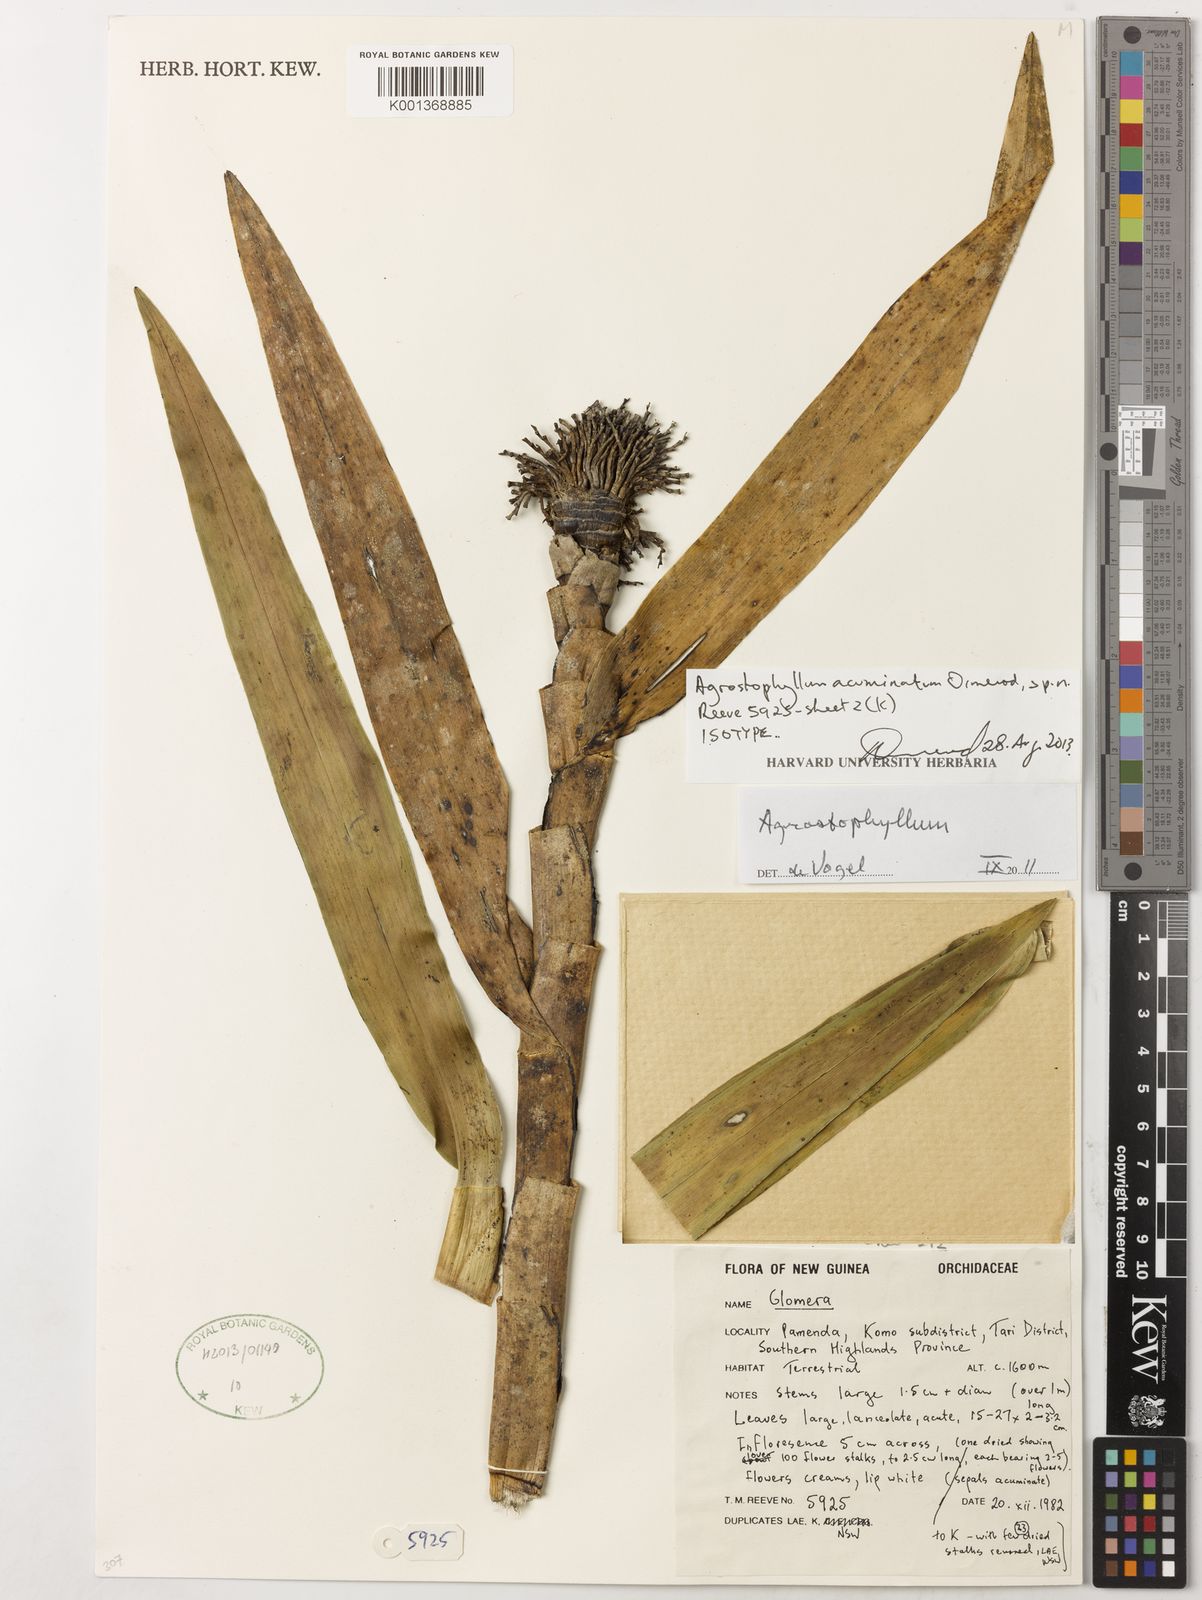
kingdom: Plantae
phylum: Tracheophyta
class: Liliopsida
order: Asparagales
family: Orchidaceae
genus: Agrostophyllum
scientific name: Agrostophyllum acuminatum
